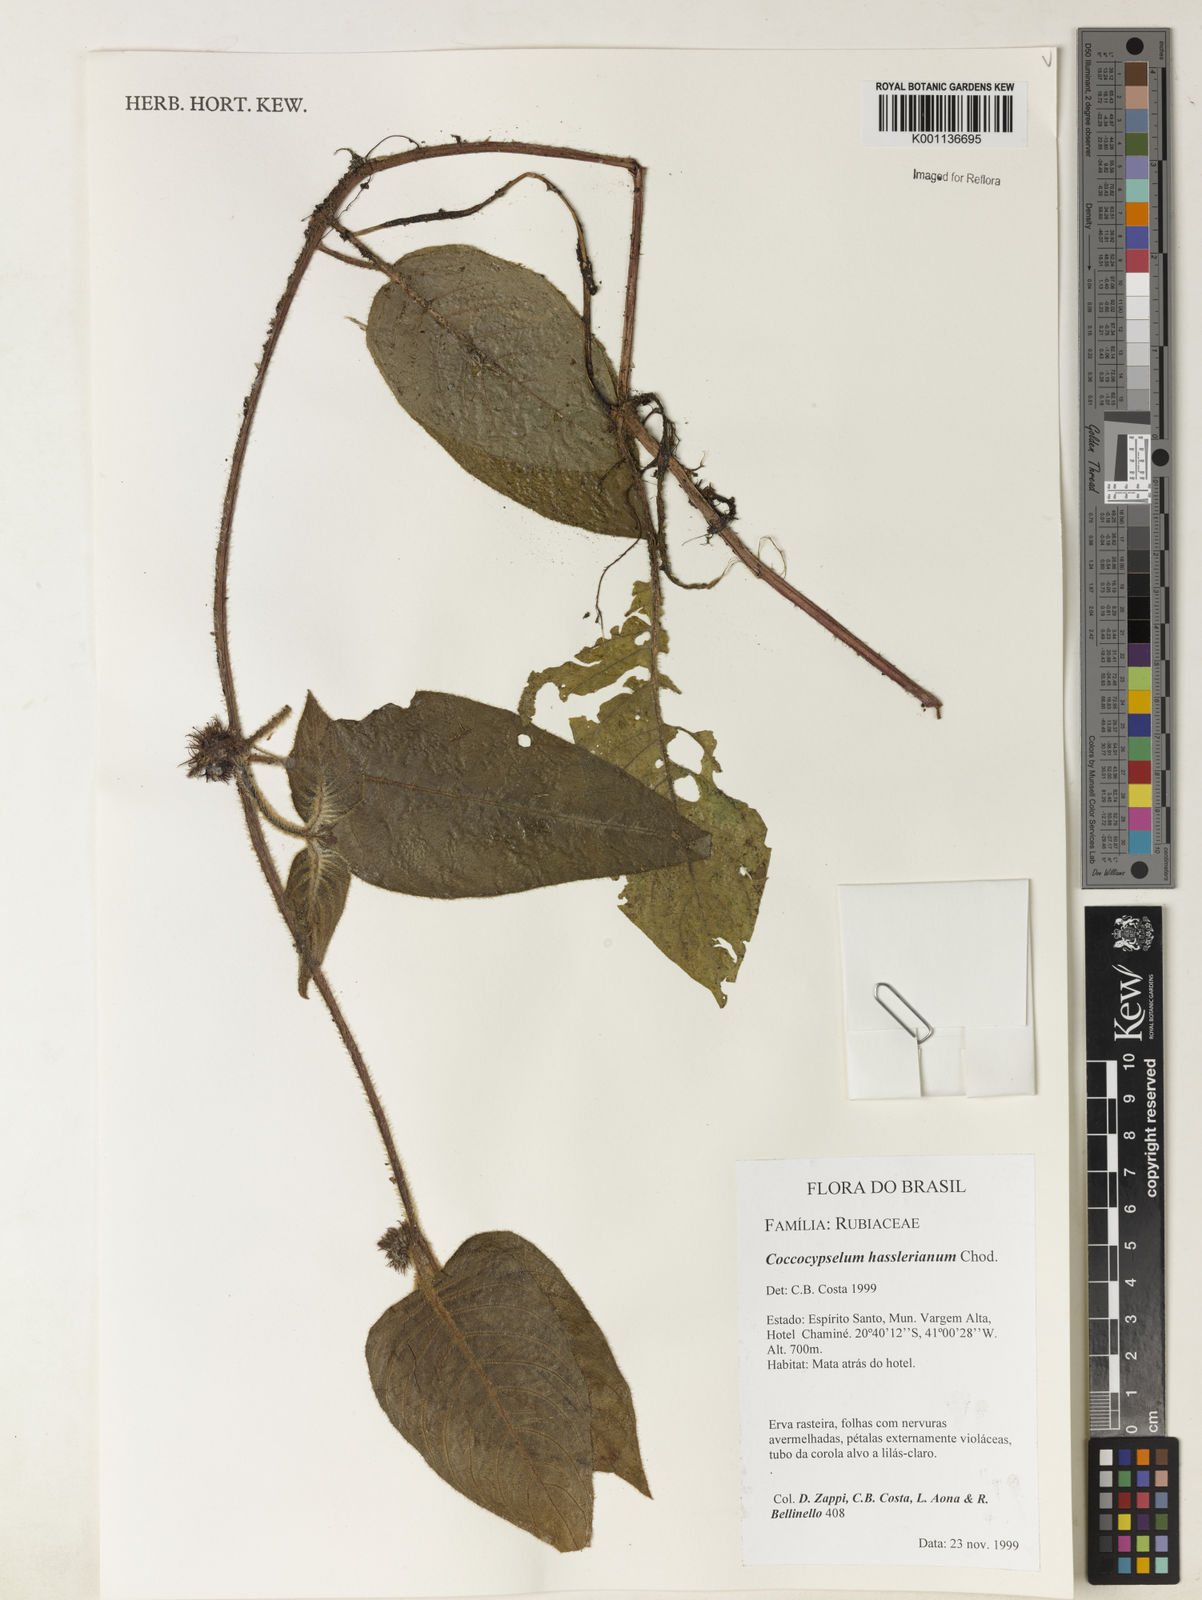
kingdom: Plantae
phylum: Tracheophyta
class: Magnoliopsida
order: Gentianales
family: Rubiaceae
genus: Coccocypselum
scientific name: Coccocypselum hasslerianum
